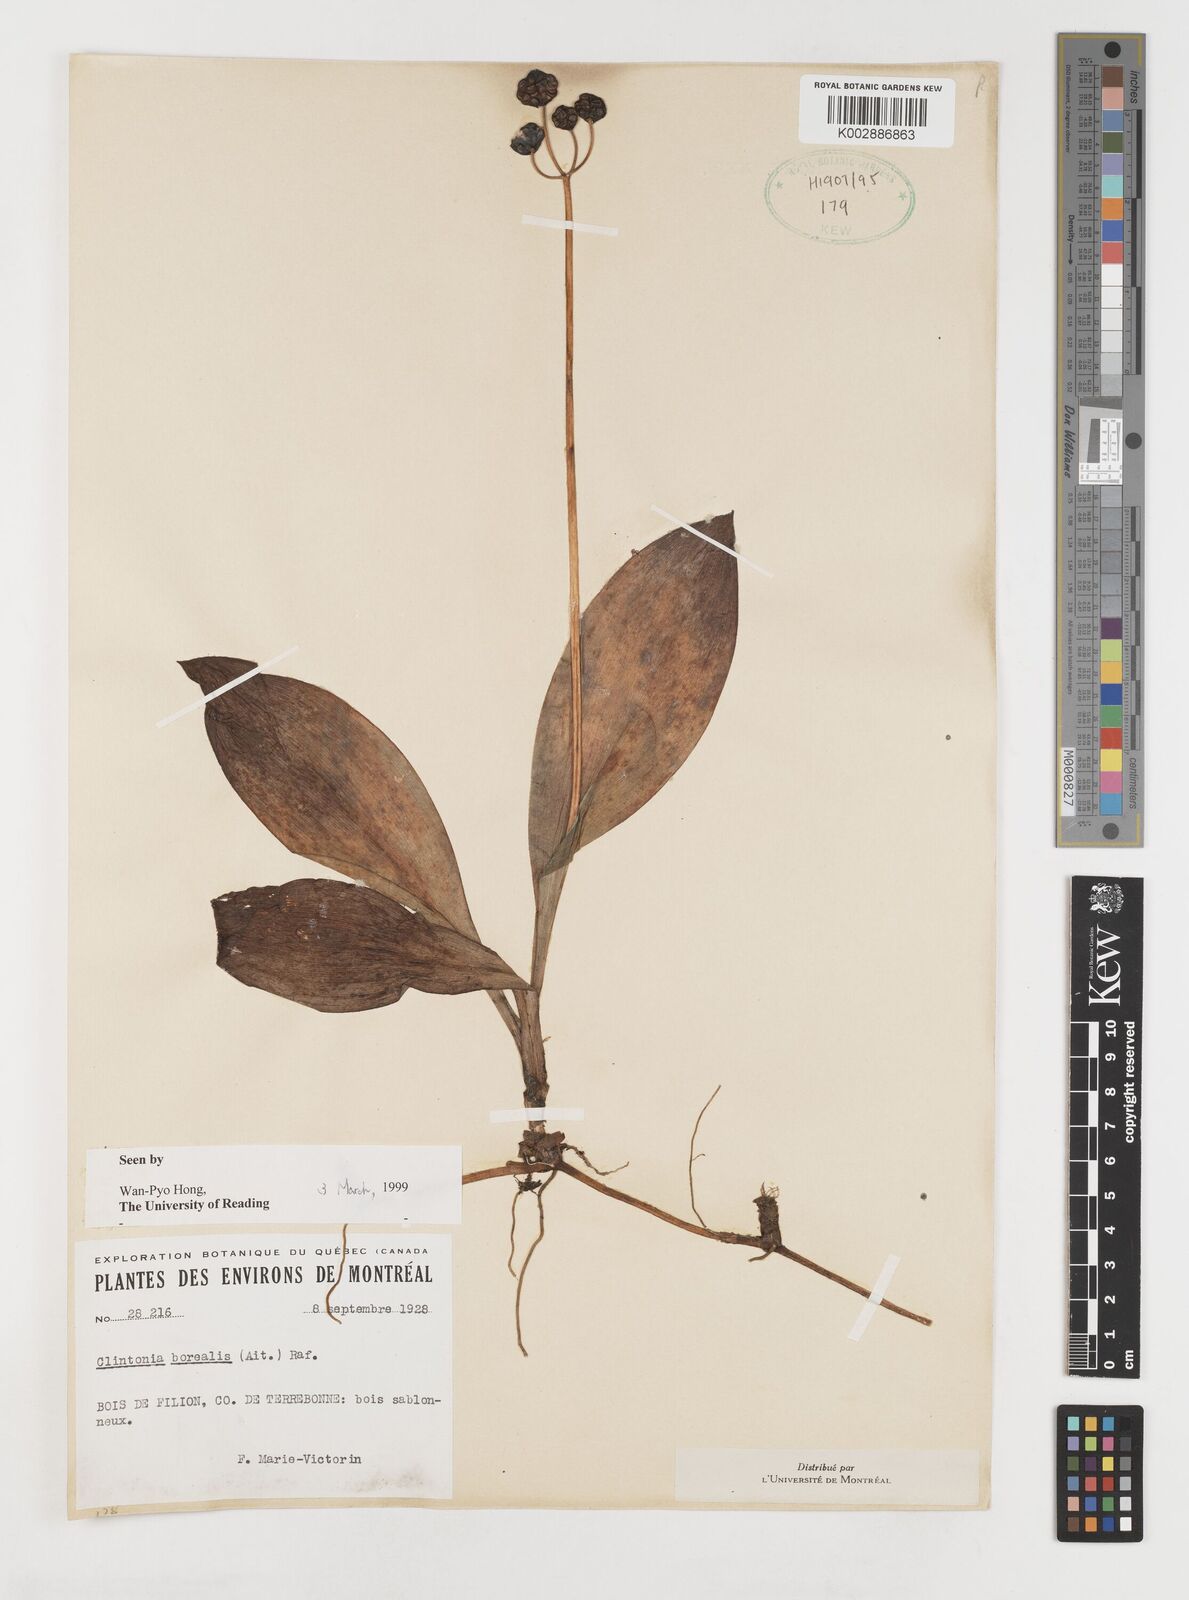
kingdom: Plantae
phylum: Tracheophyta
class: Liliopsida
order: Liliales
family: Liliaceae
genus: Clintonia
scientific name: Clintonia borealis
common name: Yellow clintonia
